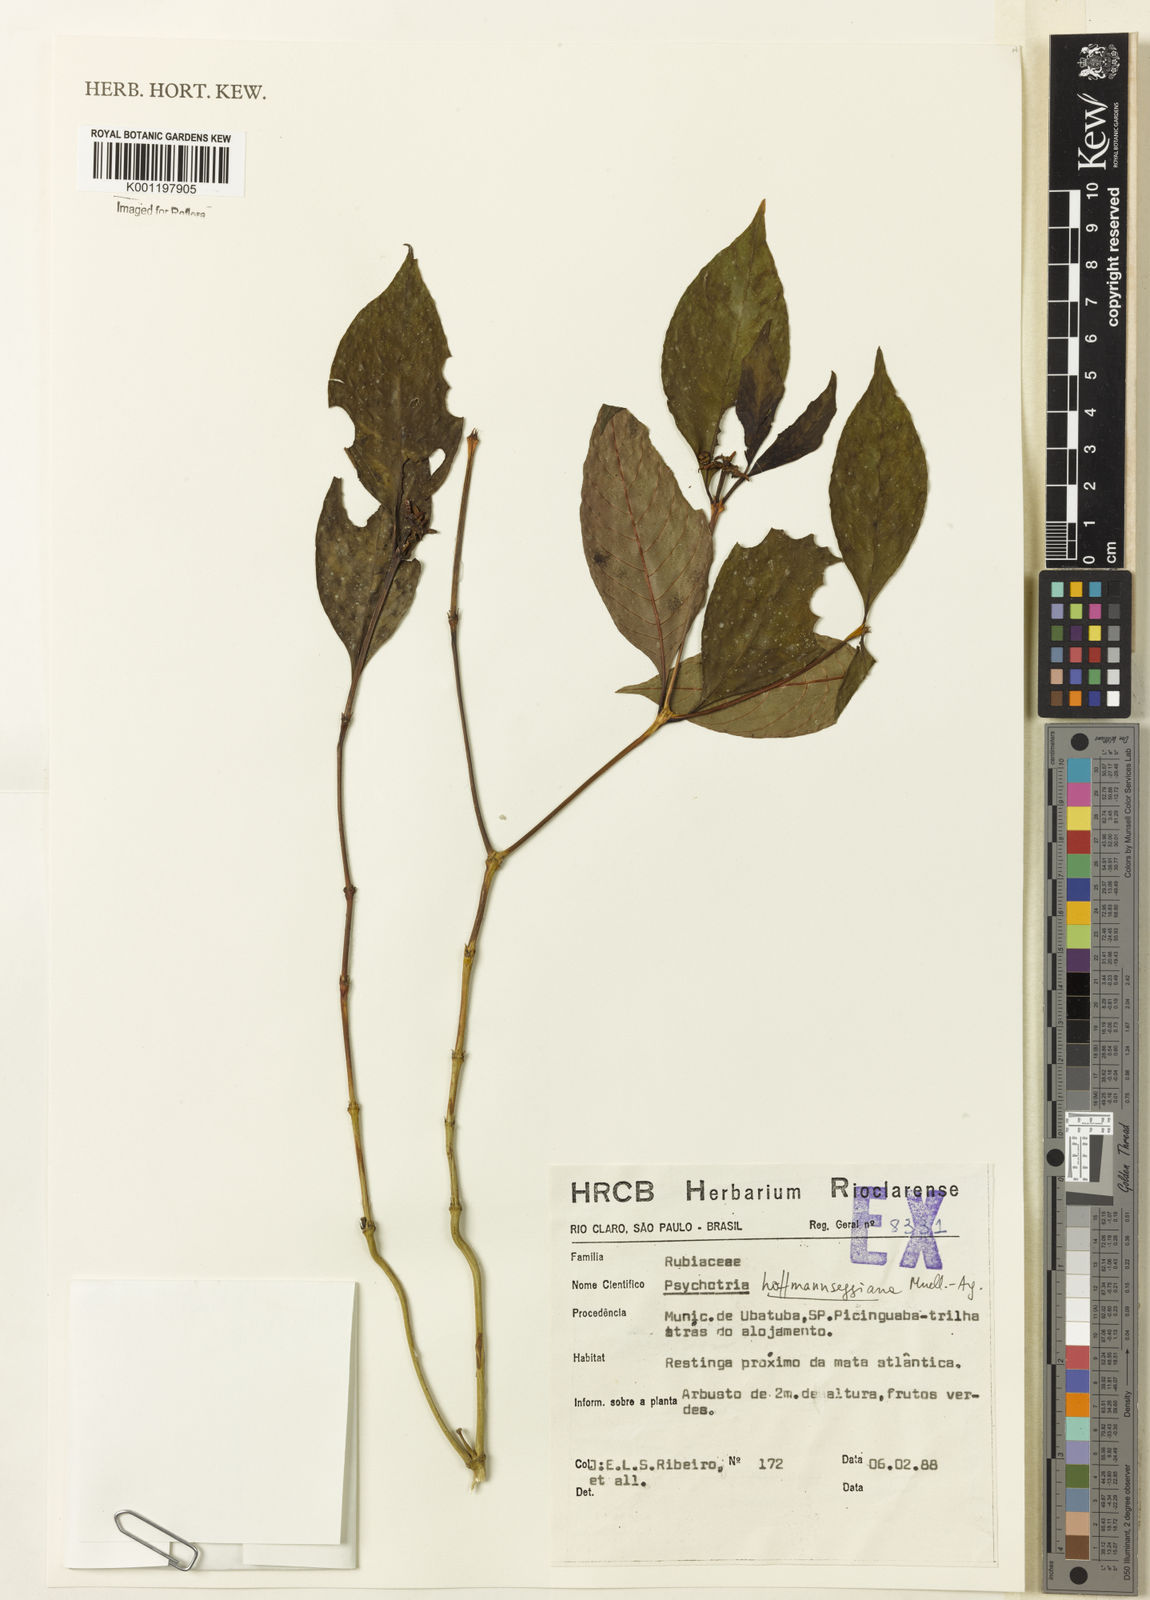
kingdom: Plantae
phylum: Tracheophyta
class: Magnoliopsida
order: Gentianales
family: Rubiaceae
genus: Psychotria
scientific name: Psychotria
